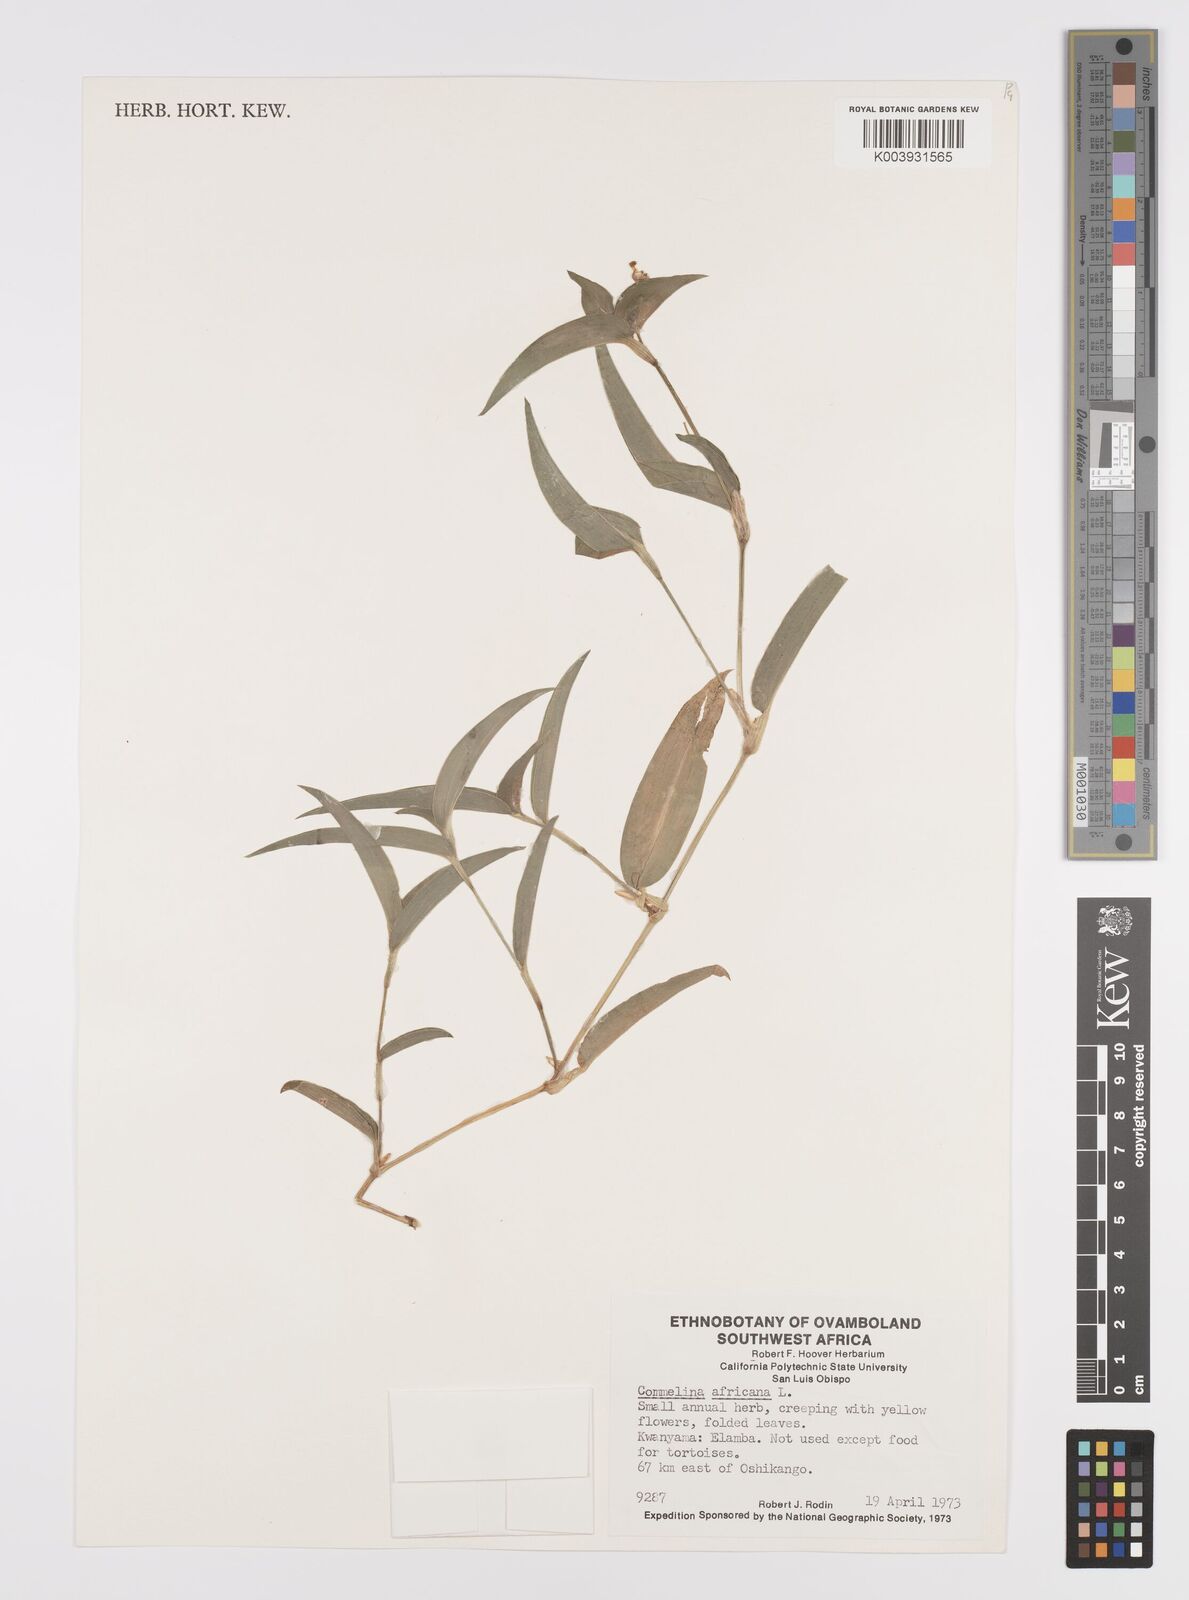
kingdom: Plantae
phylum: Tracheophyta
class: Liliopsida
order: Commelinales
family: Commelinaceae
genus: Commelina
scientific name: Commelina africana
